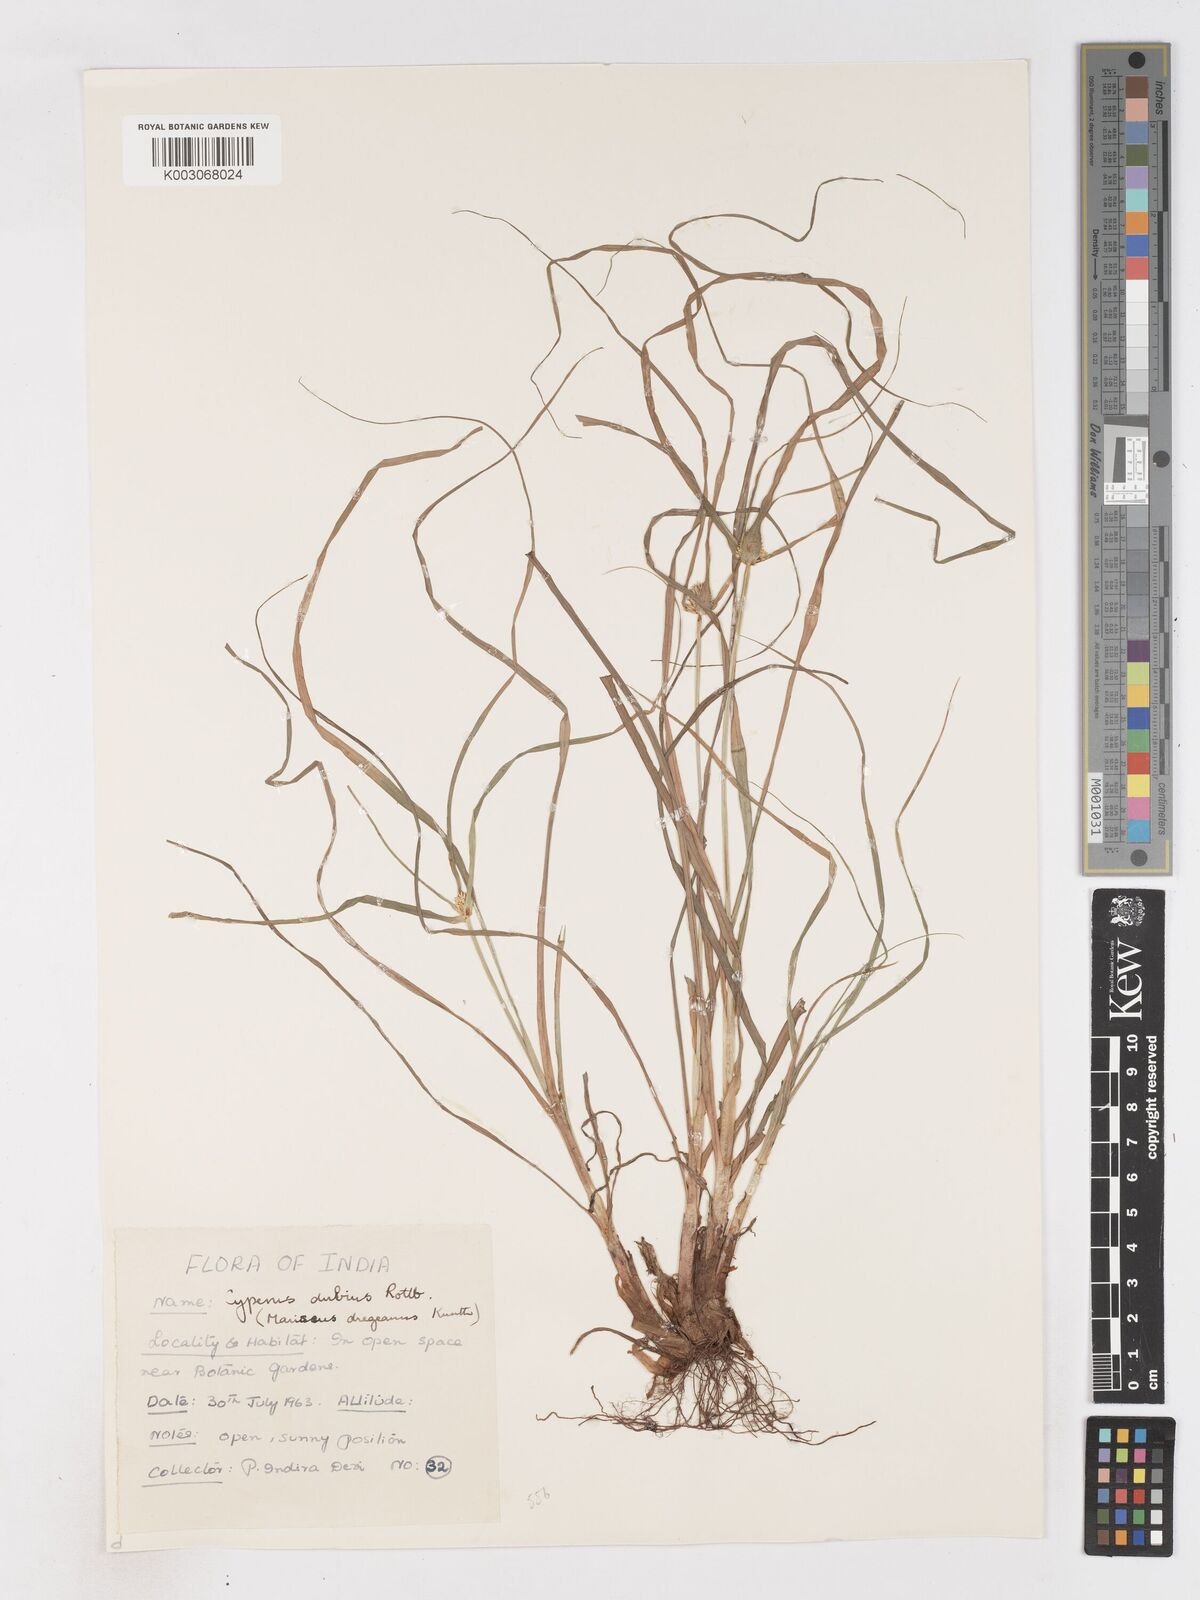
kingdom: Plantae
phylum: Tracheophyta
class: Liliopsida
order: Poales
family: Cyperaceae
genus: Cyperus
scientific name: Cyperus dubius
